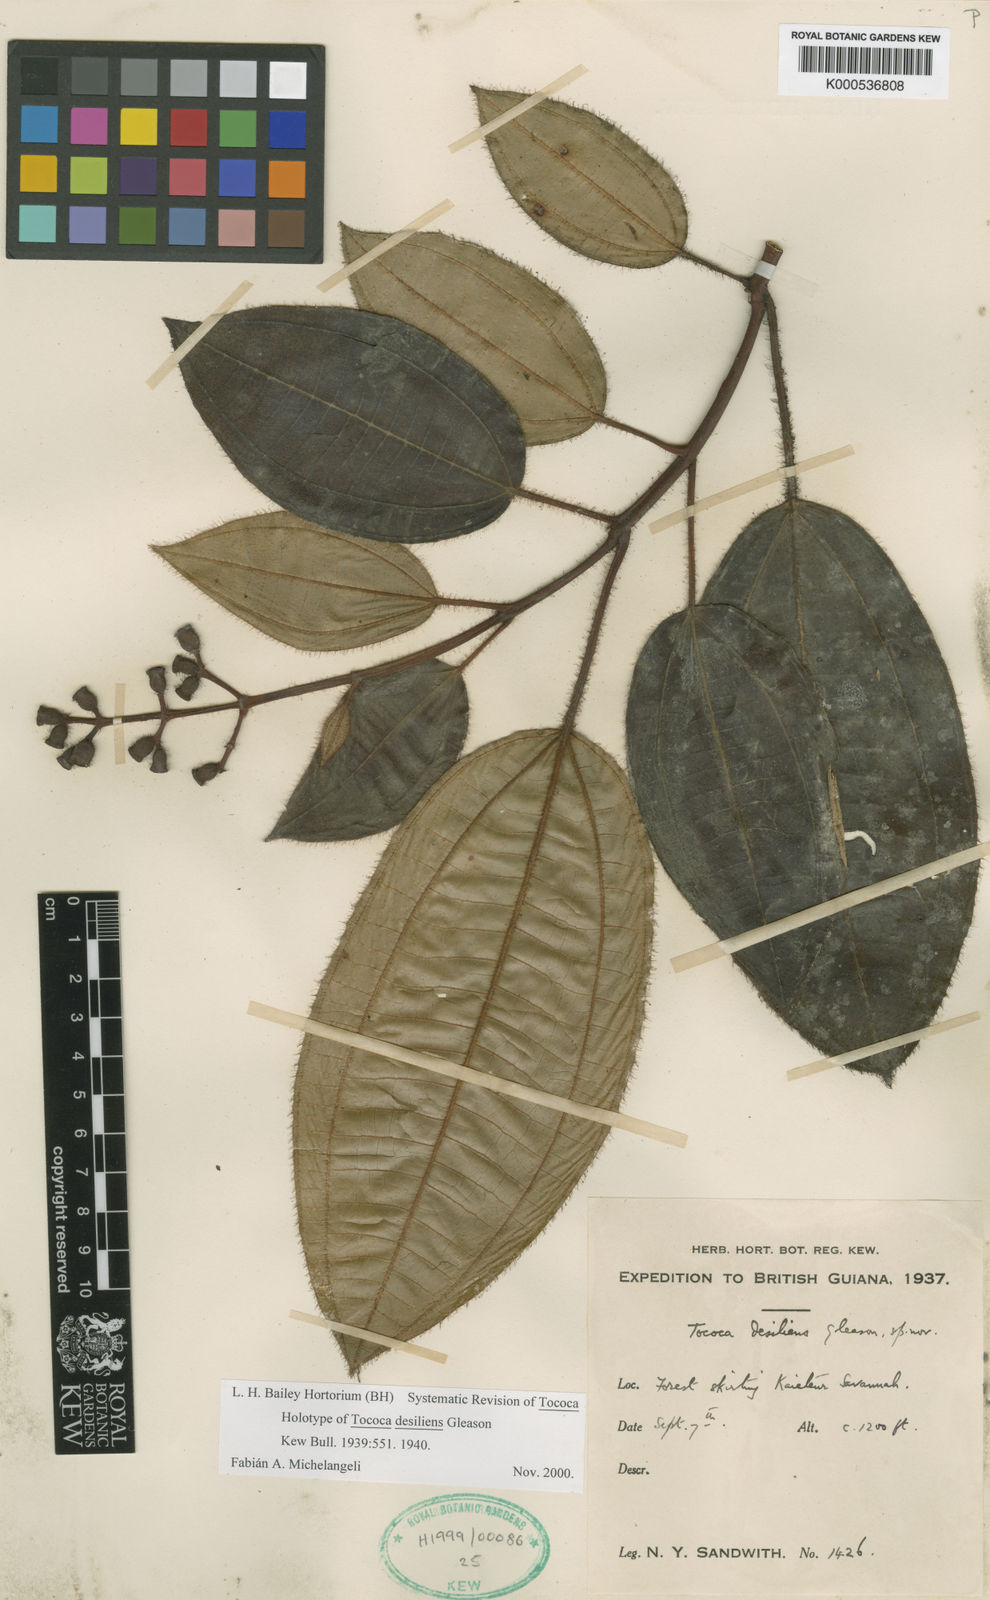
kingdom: Plantae
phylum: Tracheophyta
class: Magnoliopsida
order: Myrtales
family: Melastomataceae
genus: Miconia
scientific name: Miconia desiliens
